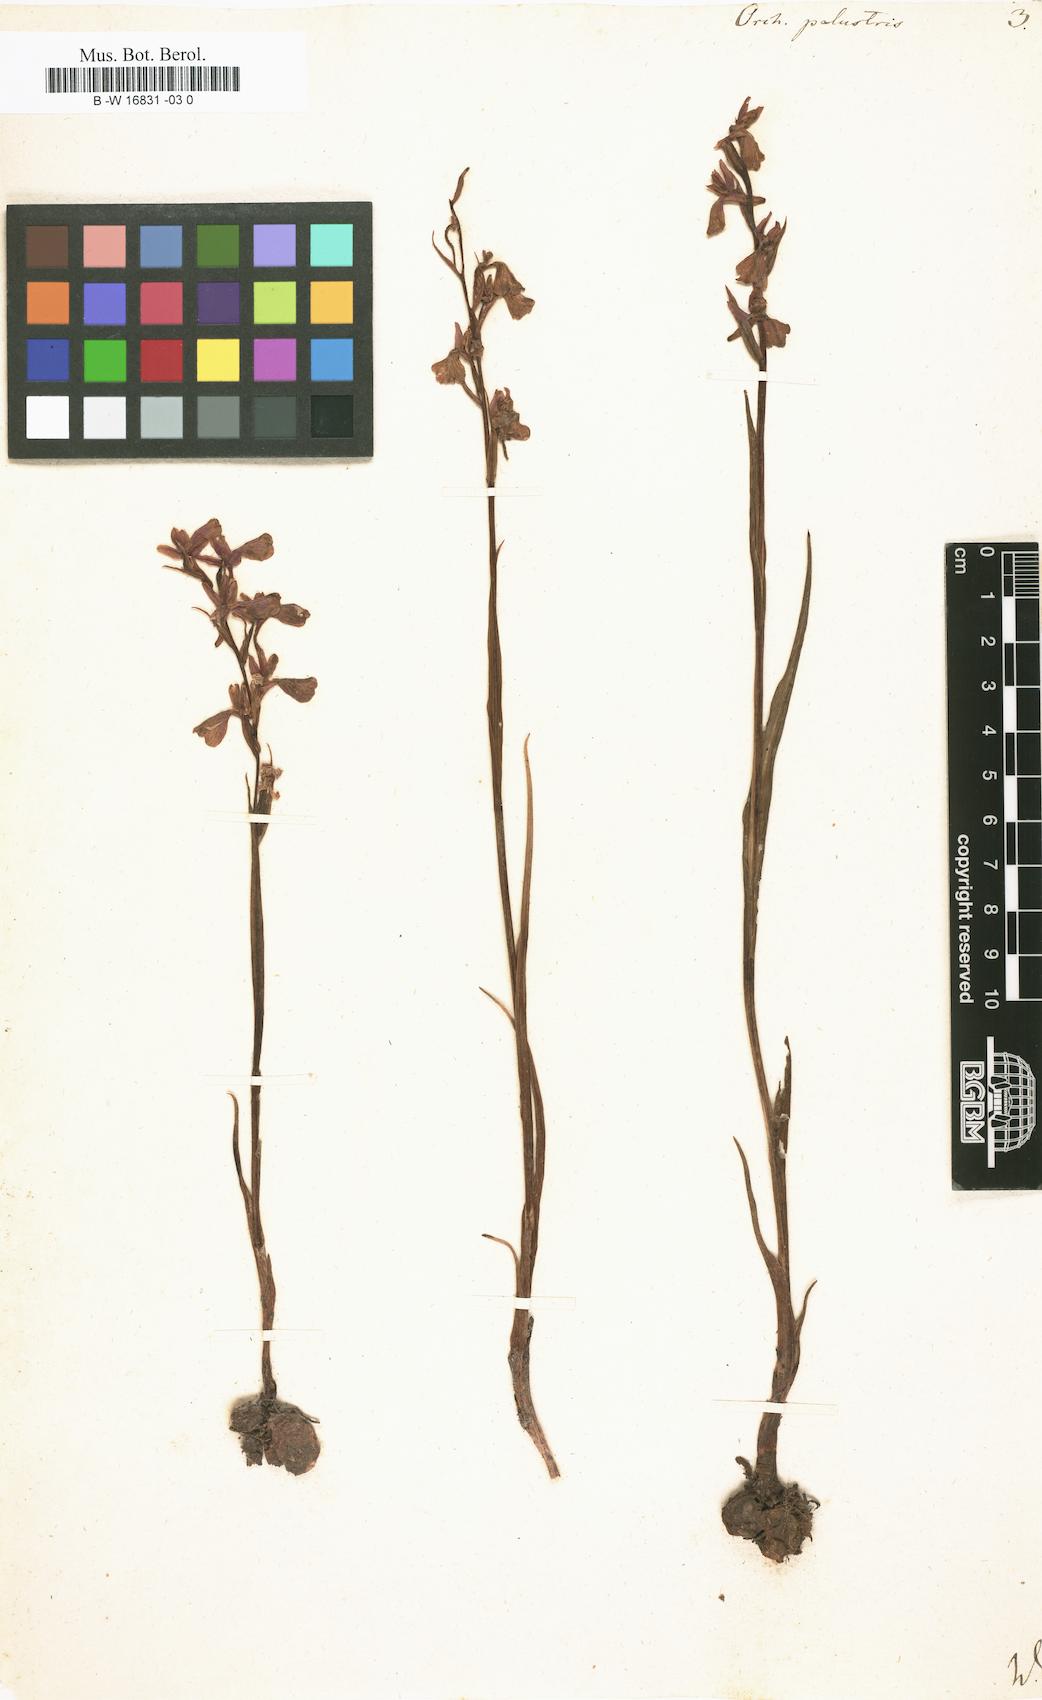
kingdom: Plantae
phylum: Tracheophyta
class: Liliopsida
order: Asparagales
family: Orchidaceae
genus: Anacamptis
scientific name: Anacamptis palustris
